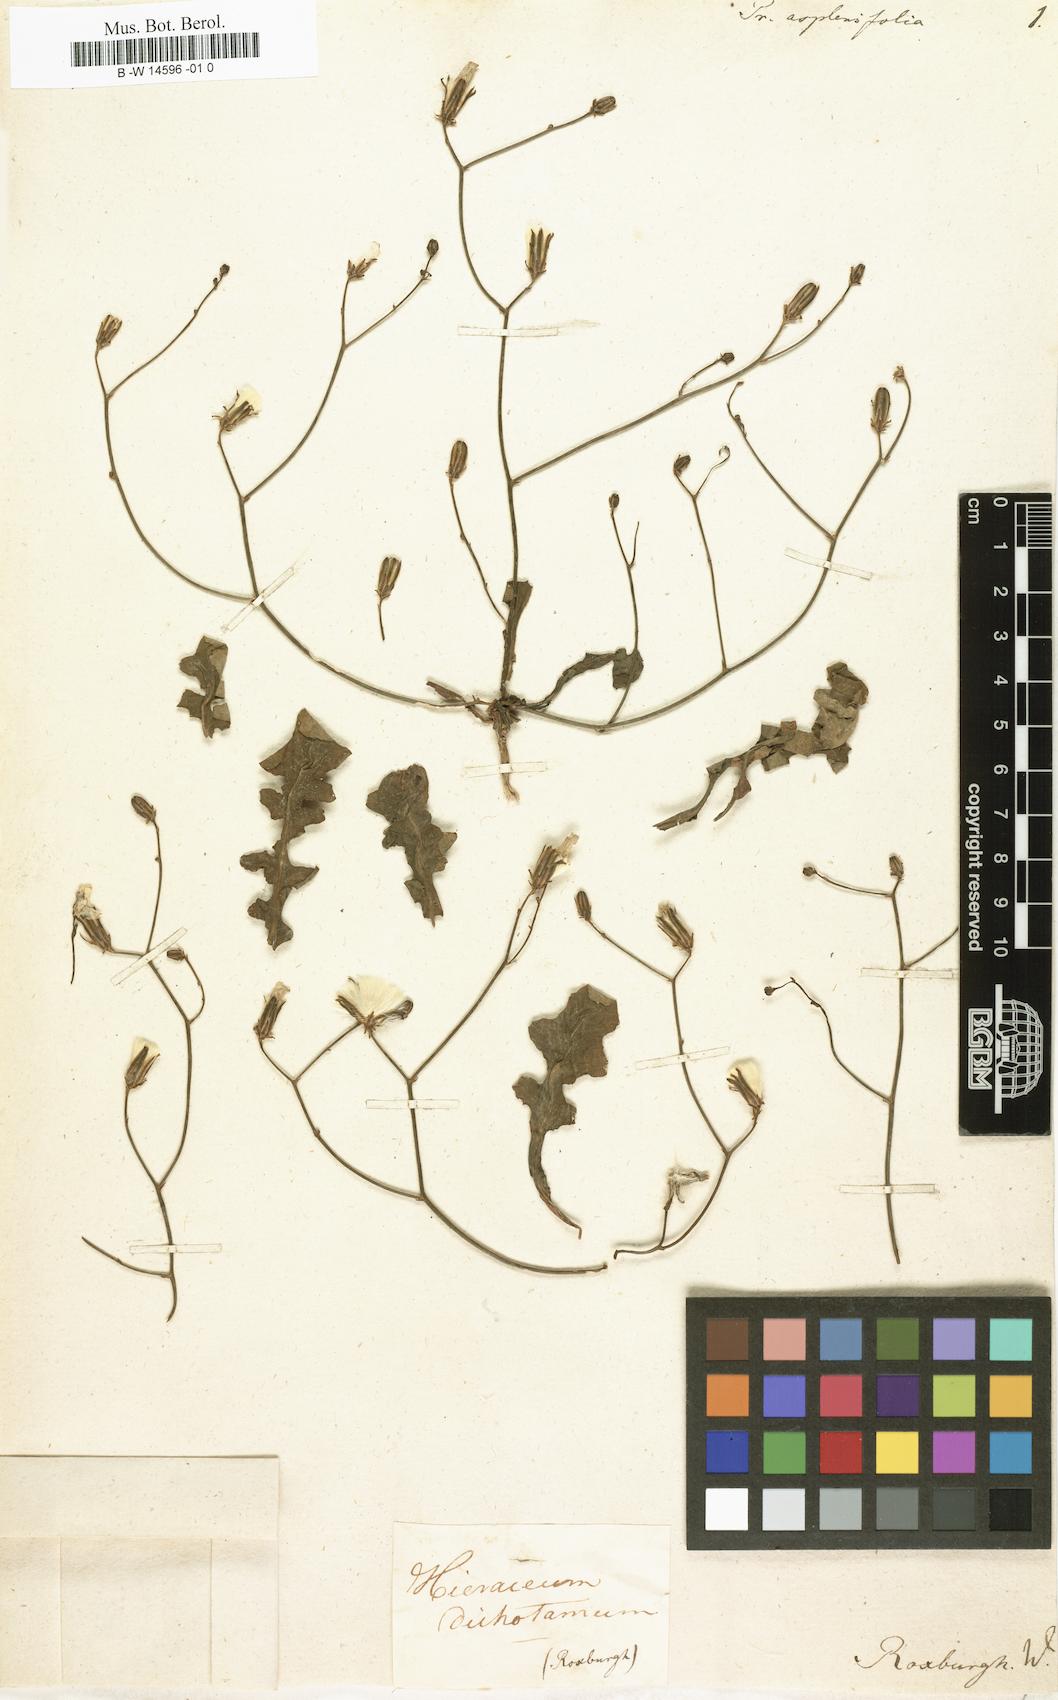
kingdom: Plantae
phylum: Tracheophyta
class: Magnoliopsida
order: Asterales
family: Asteraceae
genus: Launaea
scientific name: Launaea aspleniifolia
